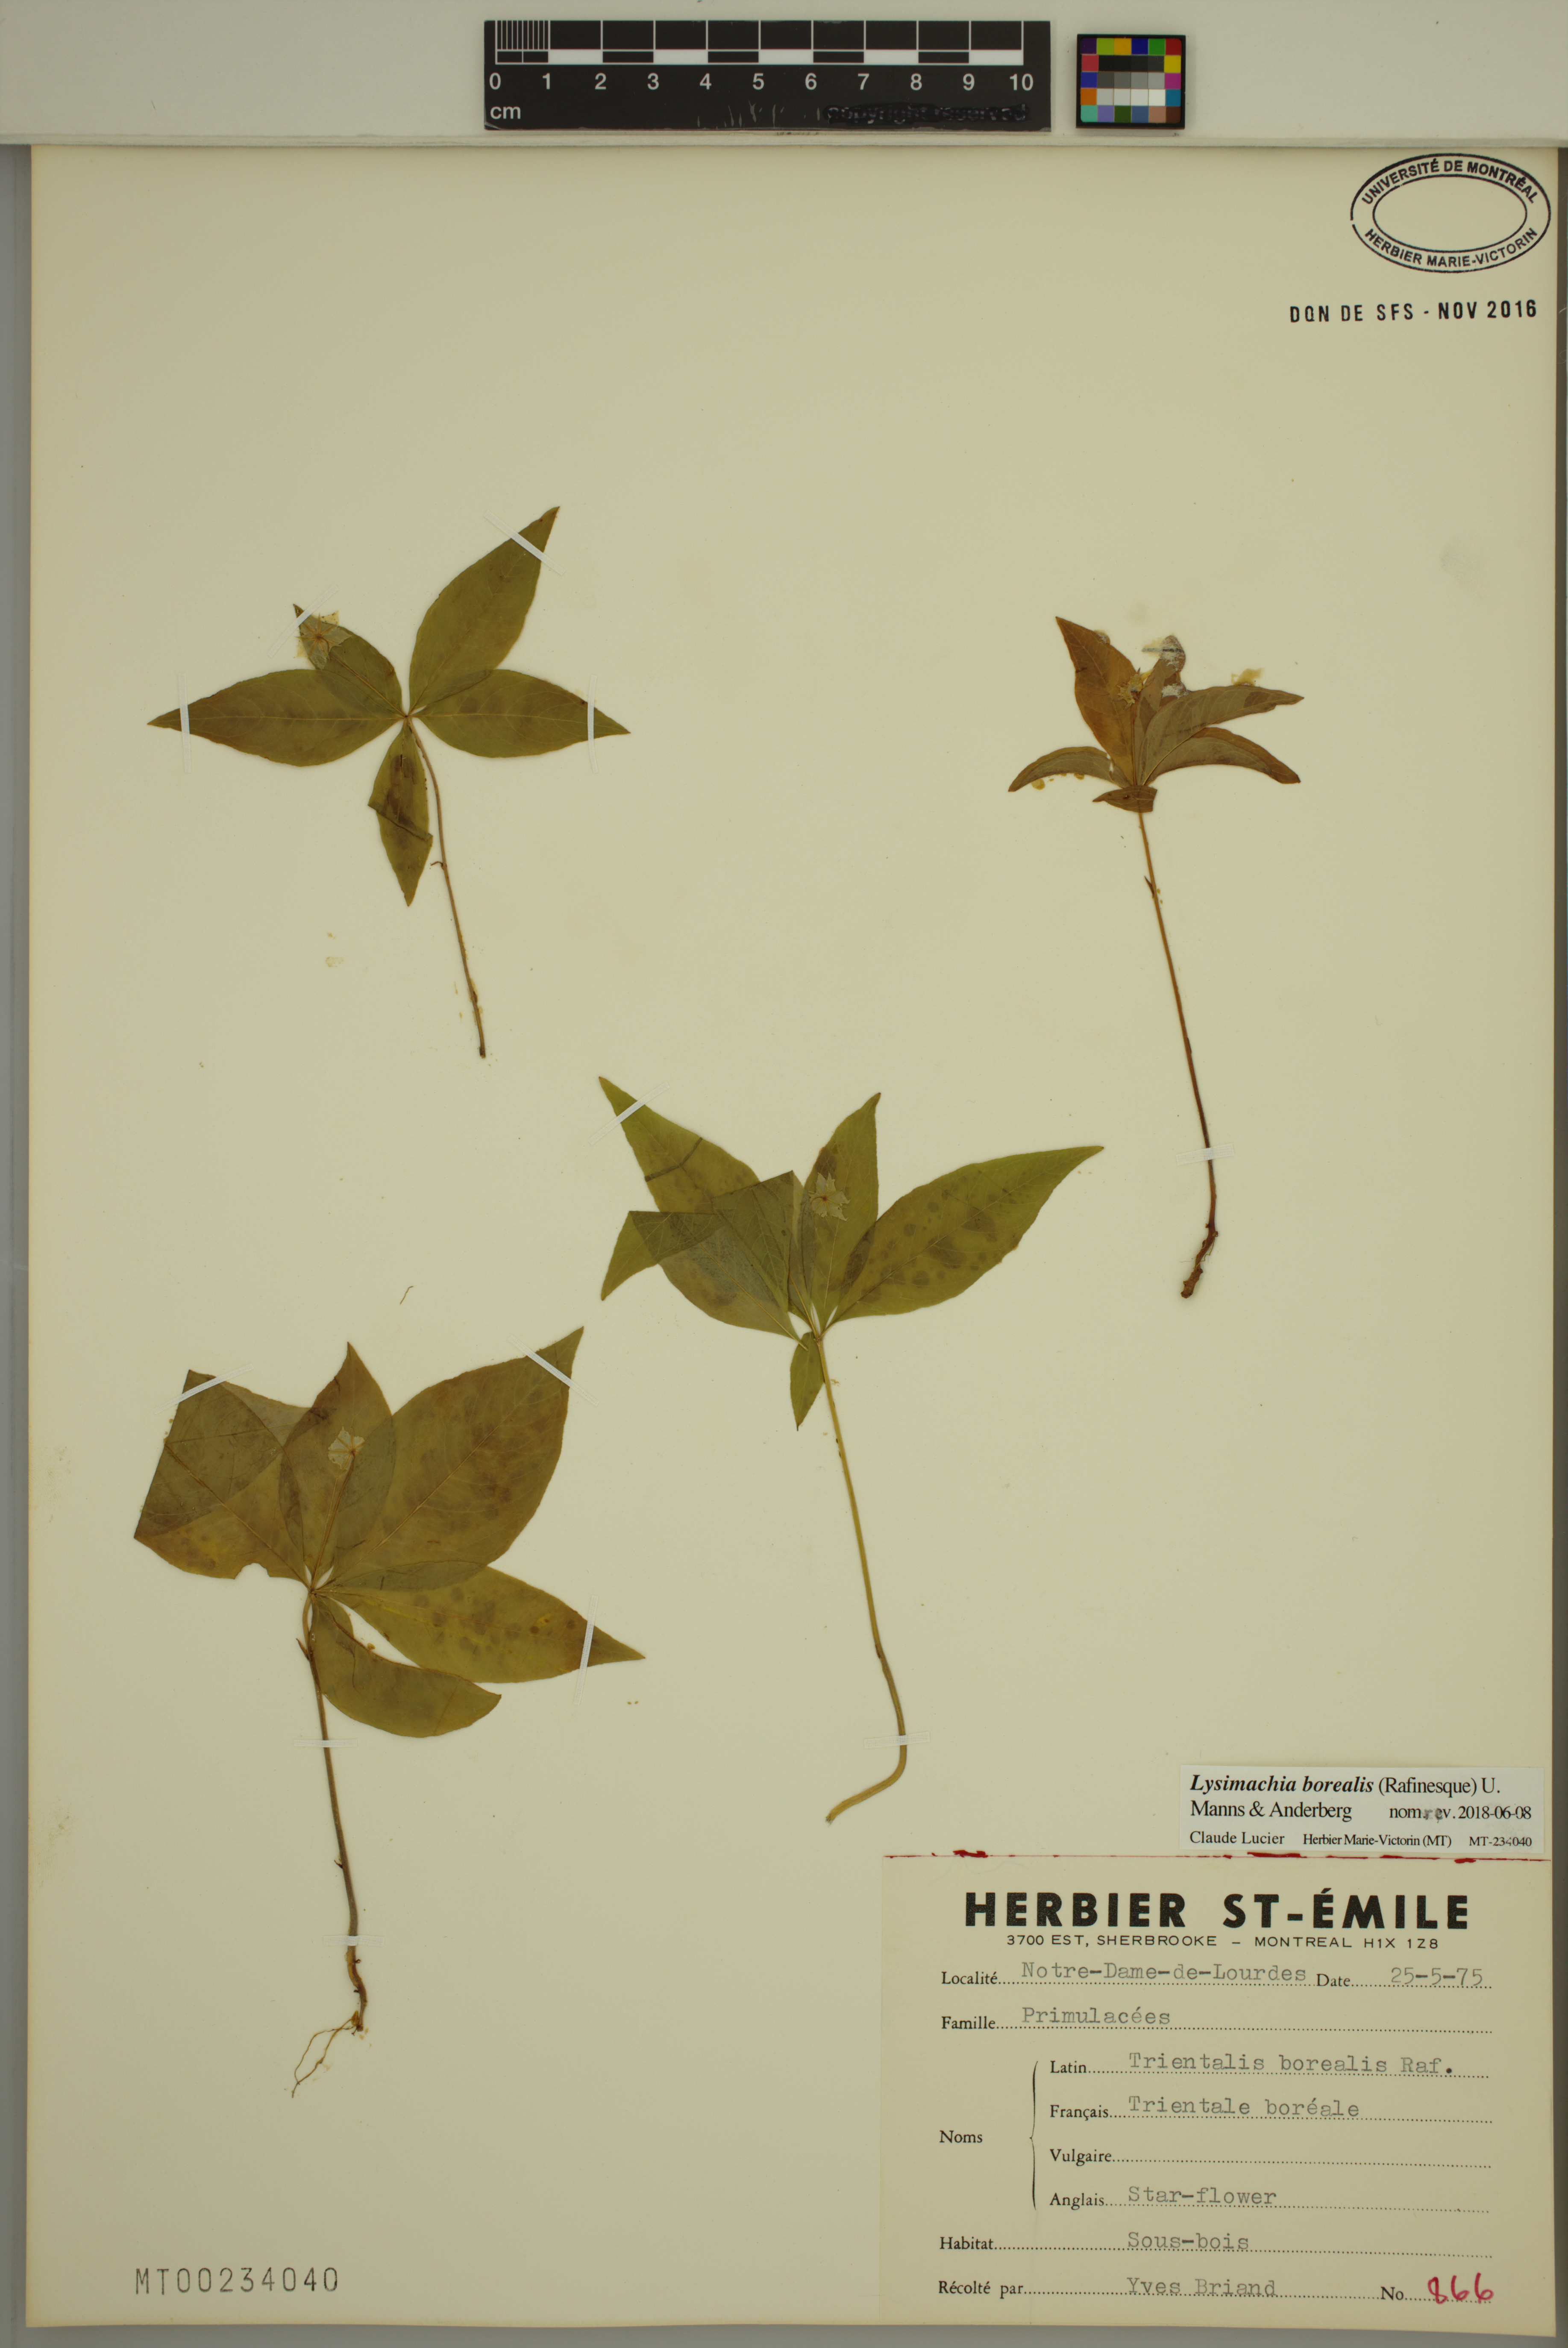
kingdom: Plantae
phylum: Tracheophyta
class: Magnoliopsida
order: Ericales
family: Primulaceae
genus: Lysimachia
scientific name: Lysimachia borealis
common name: American starflower
